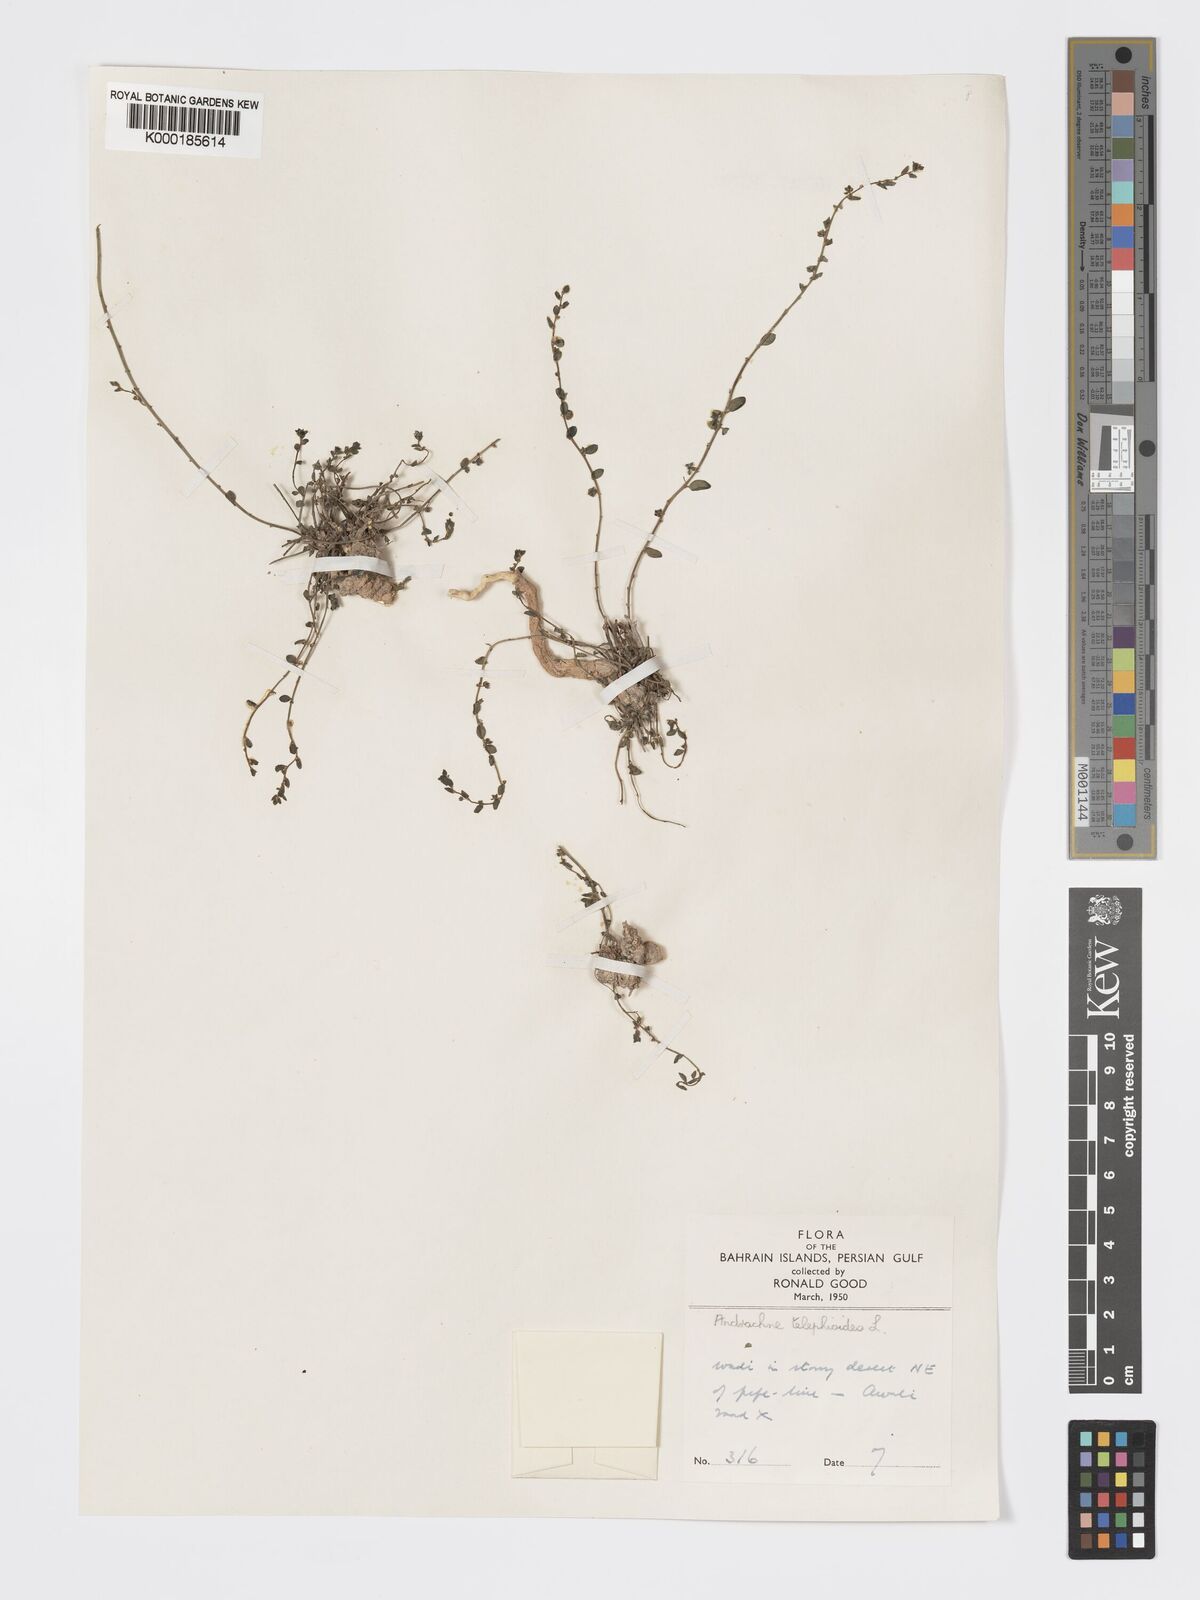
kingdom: Plantae
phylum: Tracheophyta
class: Magnoliopsida
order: Malpighiales
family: Phyllanthaceae
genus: Andrachne
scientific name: Andrachne telephioides
